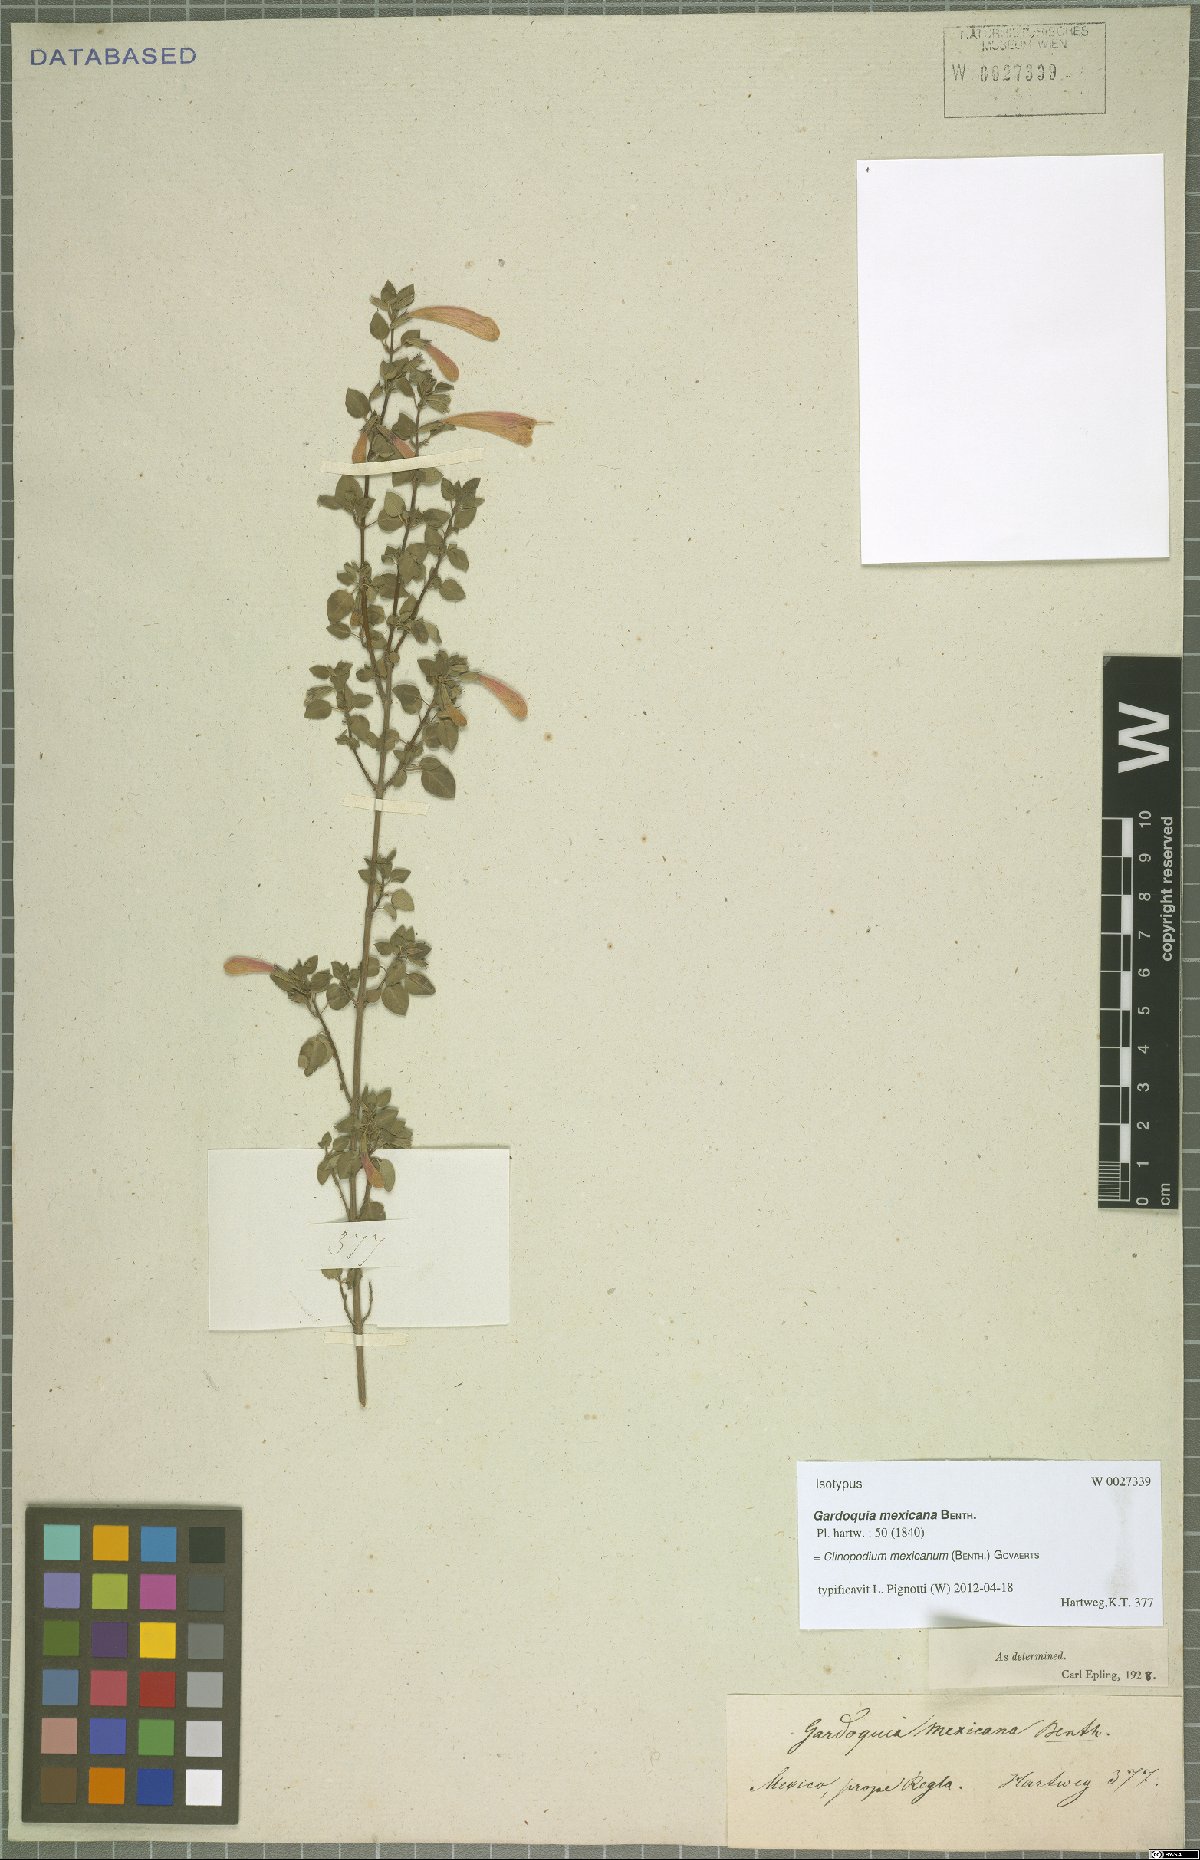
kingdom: Plantae
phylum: Tracheophyta
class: Magnoliopsida
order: Lamiales
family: Lamiaceae
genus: Clinopodium
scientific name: Clinopodium mexicanum
